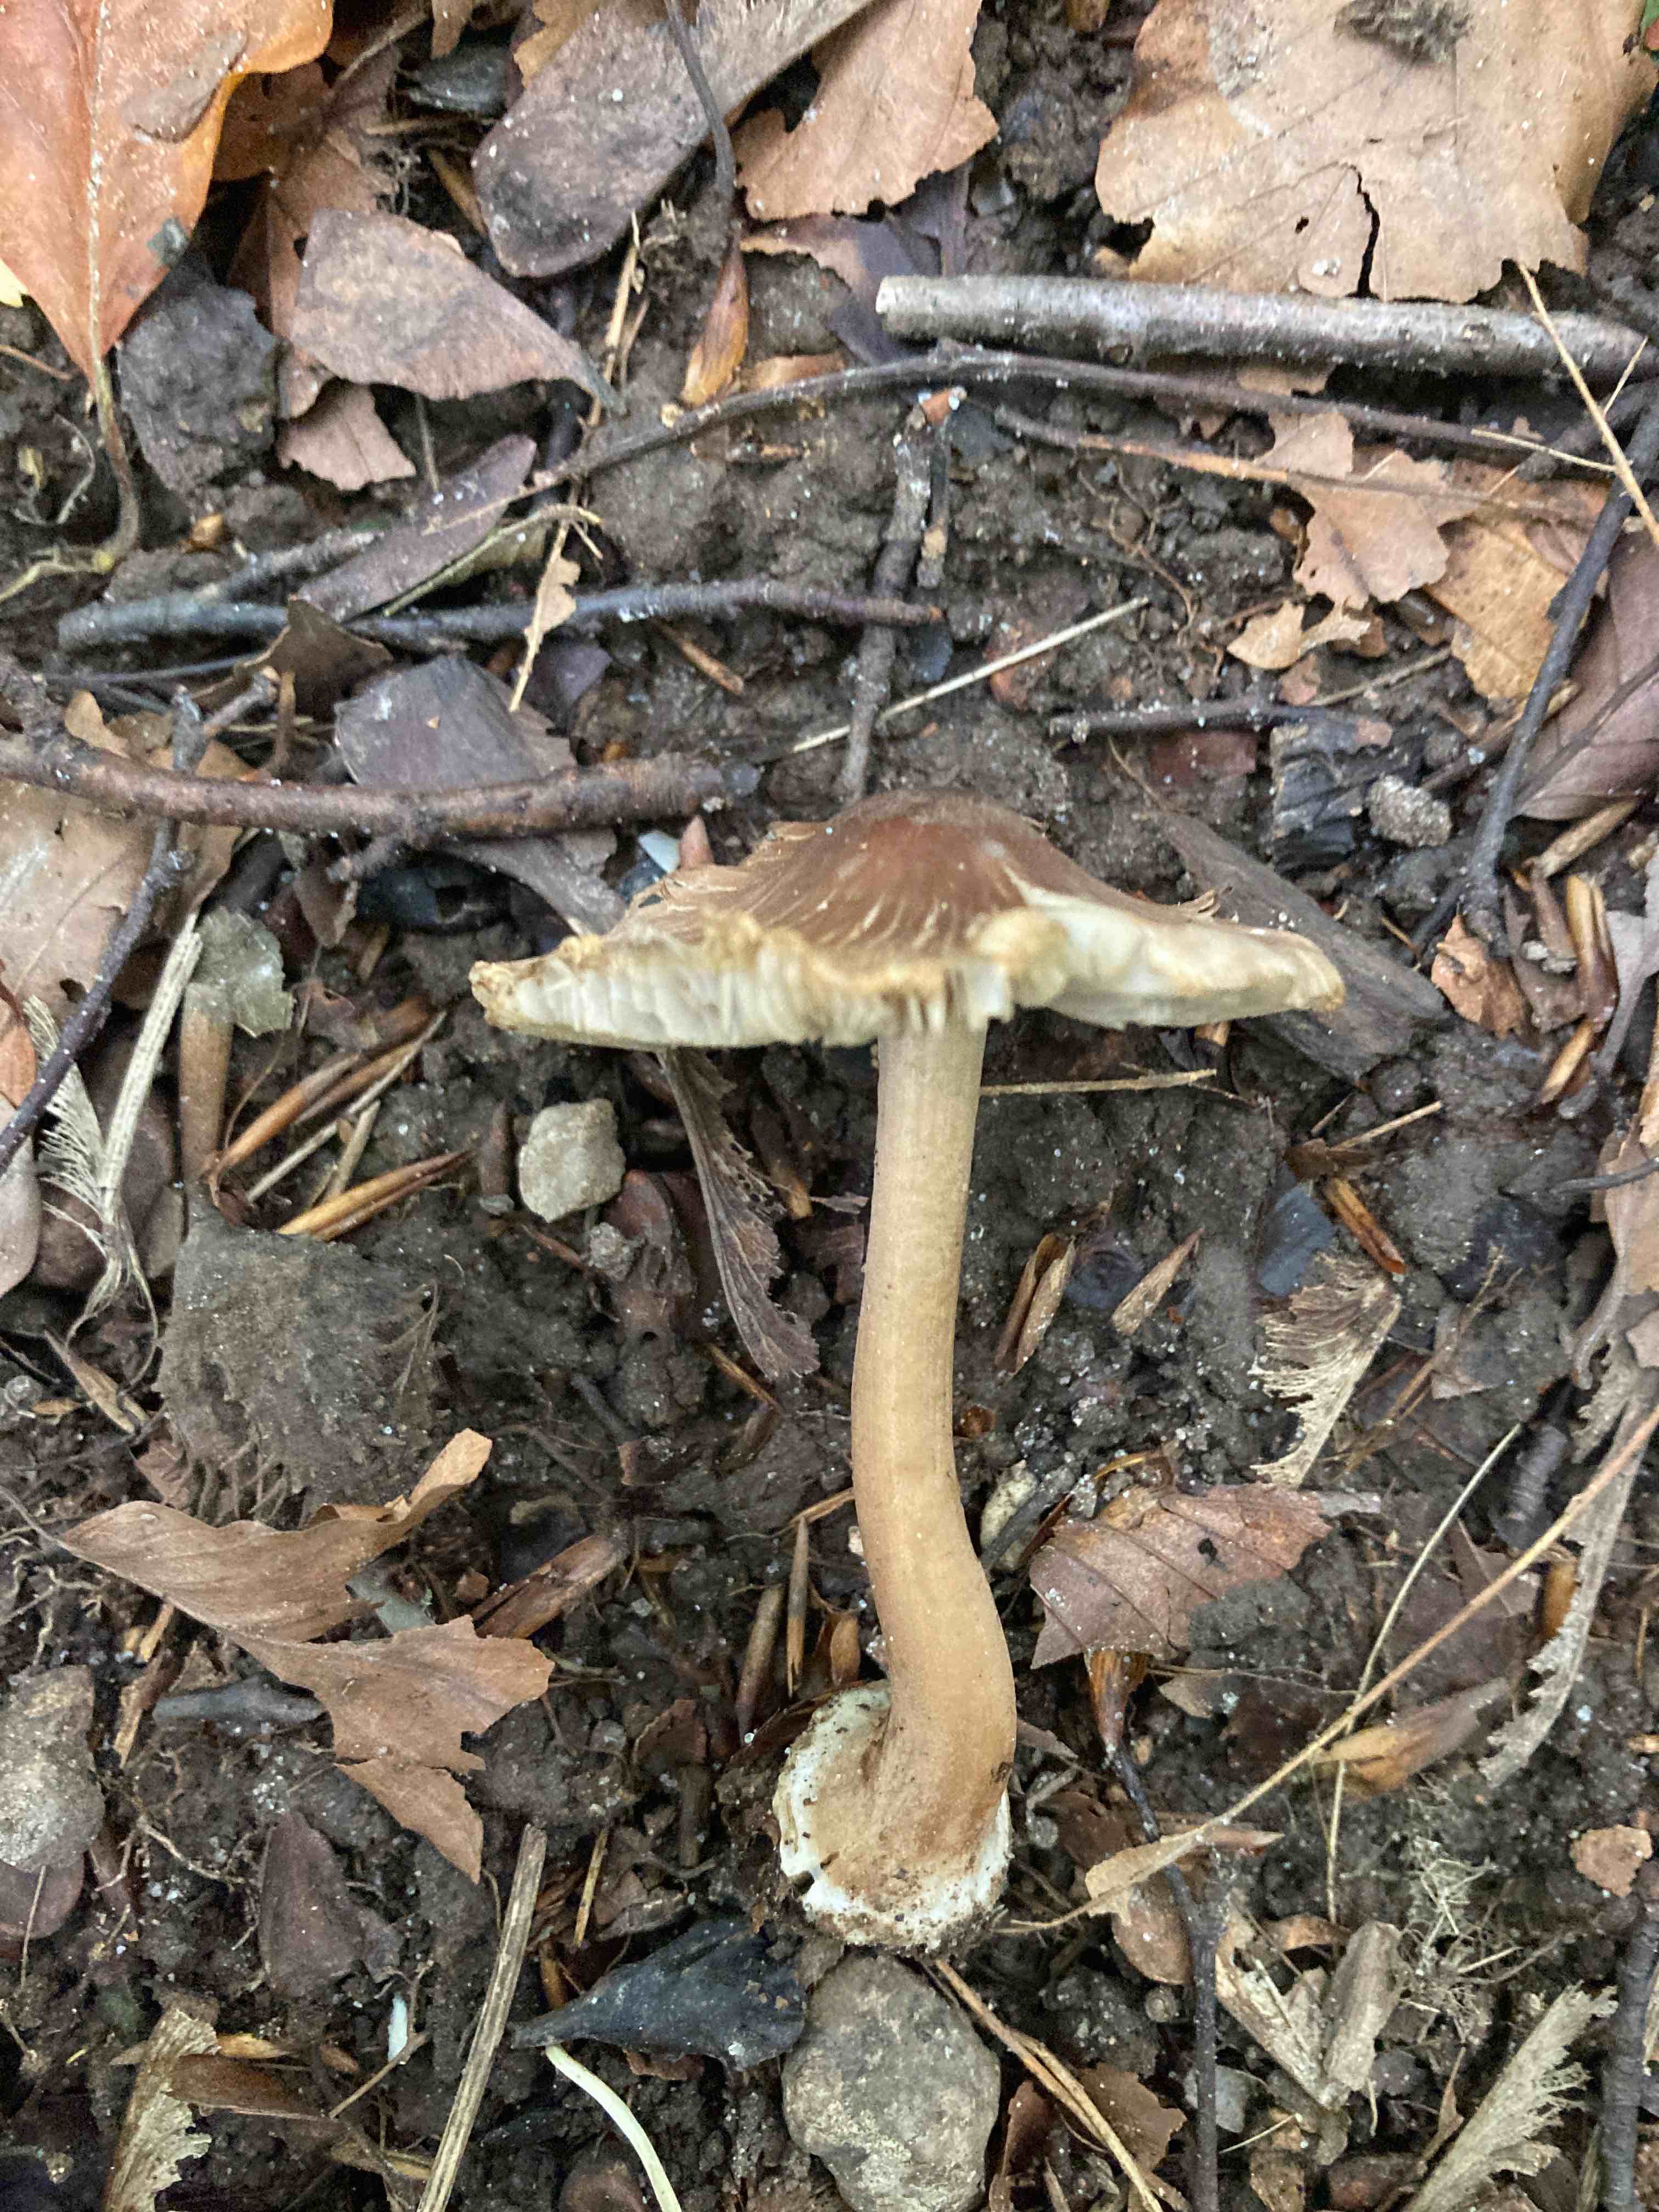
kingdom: Fungi
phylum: Basidiomycota
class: Agaricomycetes
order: Agaricales
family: Inocybaceae
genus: Inocybe
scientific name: Inocybe asterospora
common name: stjernesporet trævlhat
